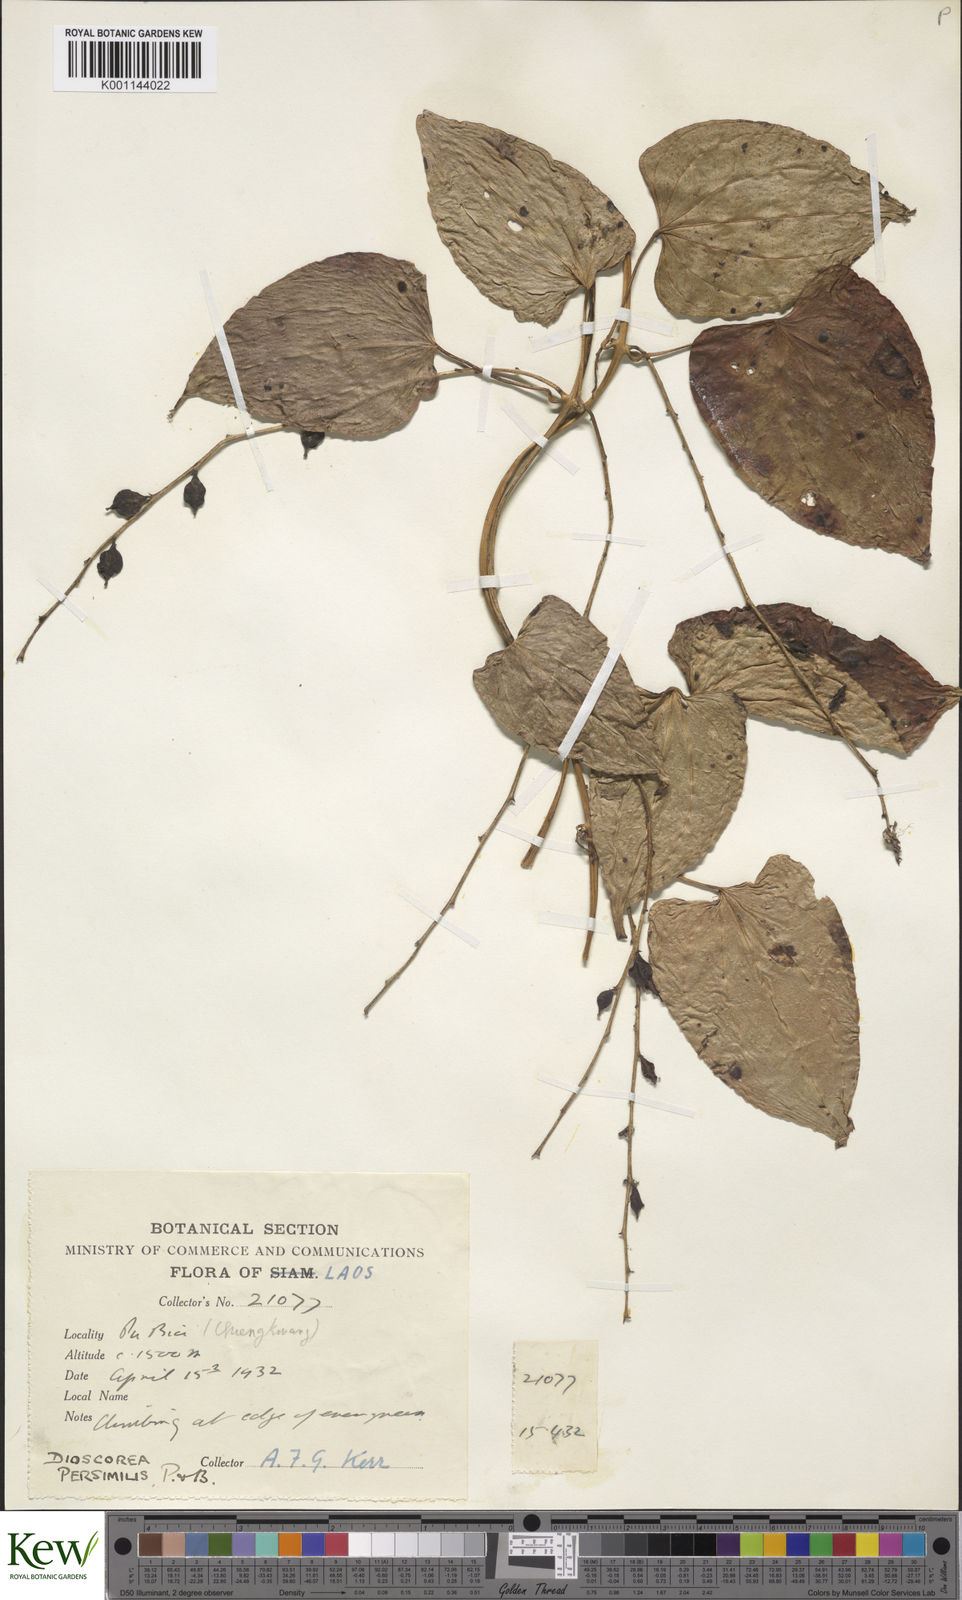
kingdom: Plantae
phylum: Tracheophyta
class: Liliopsida
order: Dioscoreales
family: Dioscoreaceae
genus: Dioscorea
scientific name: Dioscorea hamiltonii
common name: Mountain yam
